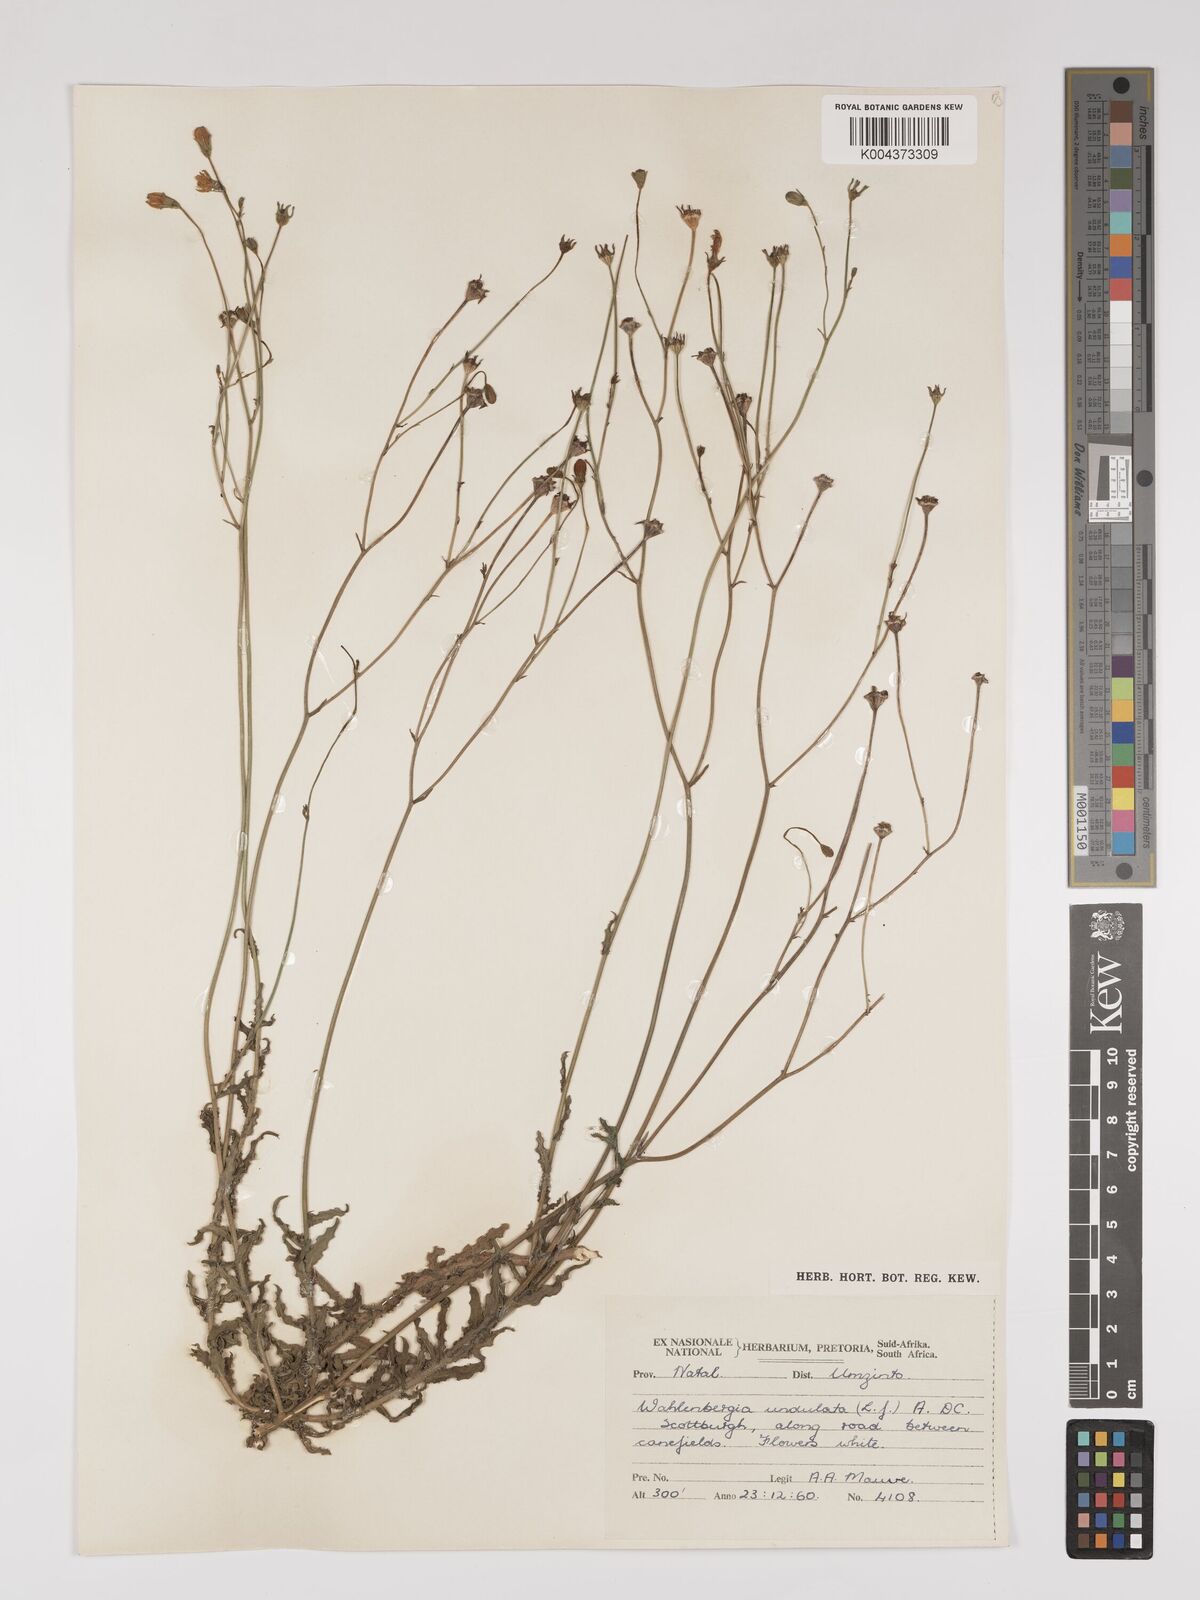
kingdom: Plantae
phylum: Tracheophyta
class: Magnoliopsida
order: Asterales
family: Campanulaceae
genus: Wahlenbergia
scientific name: Wahlenbergia undulata
